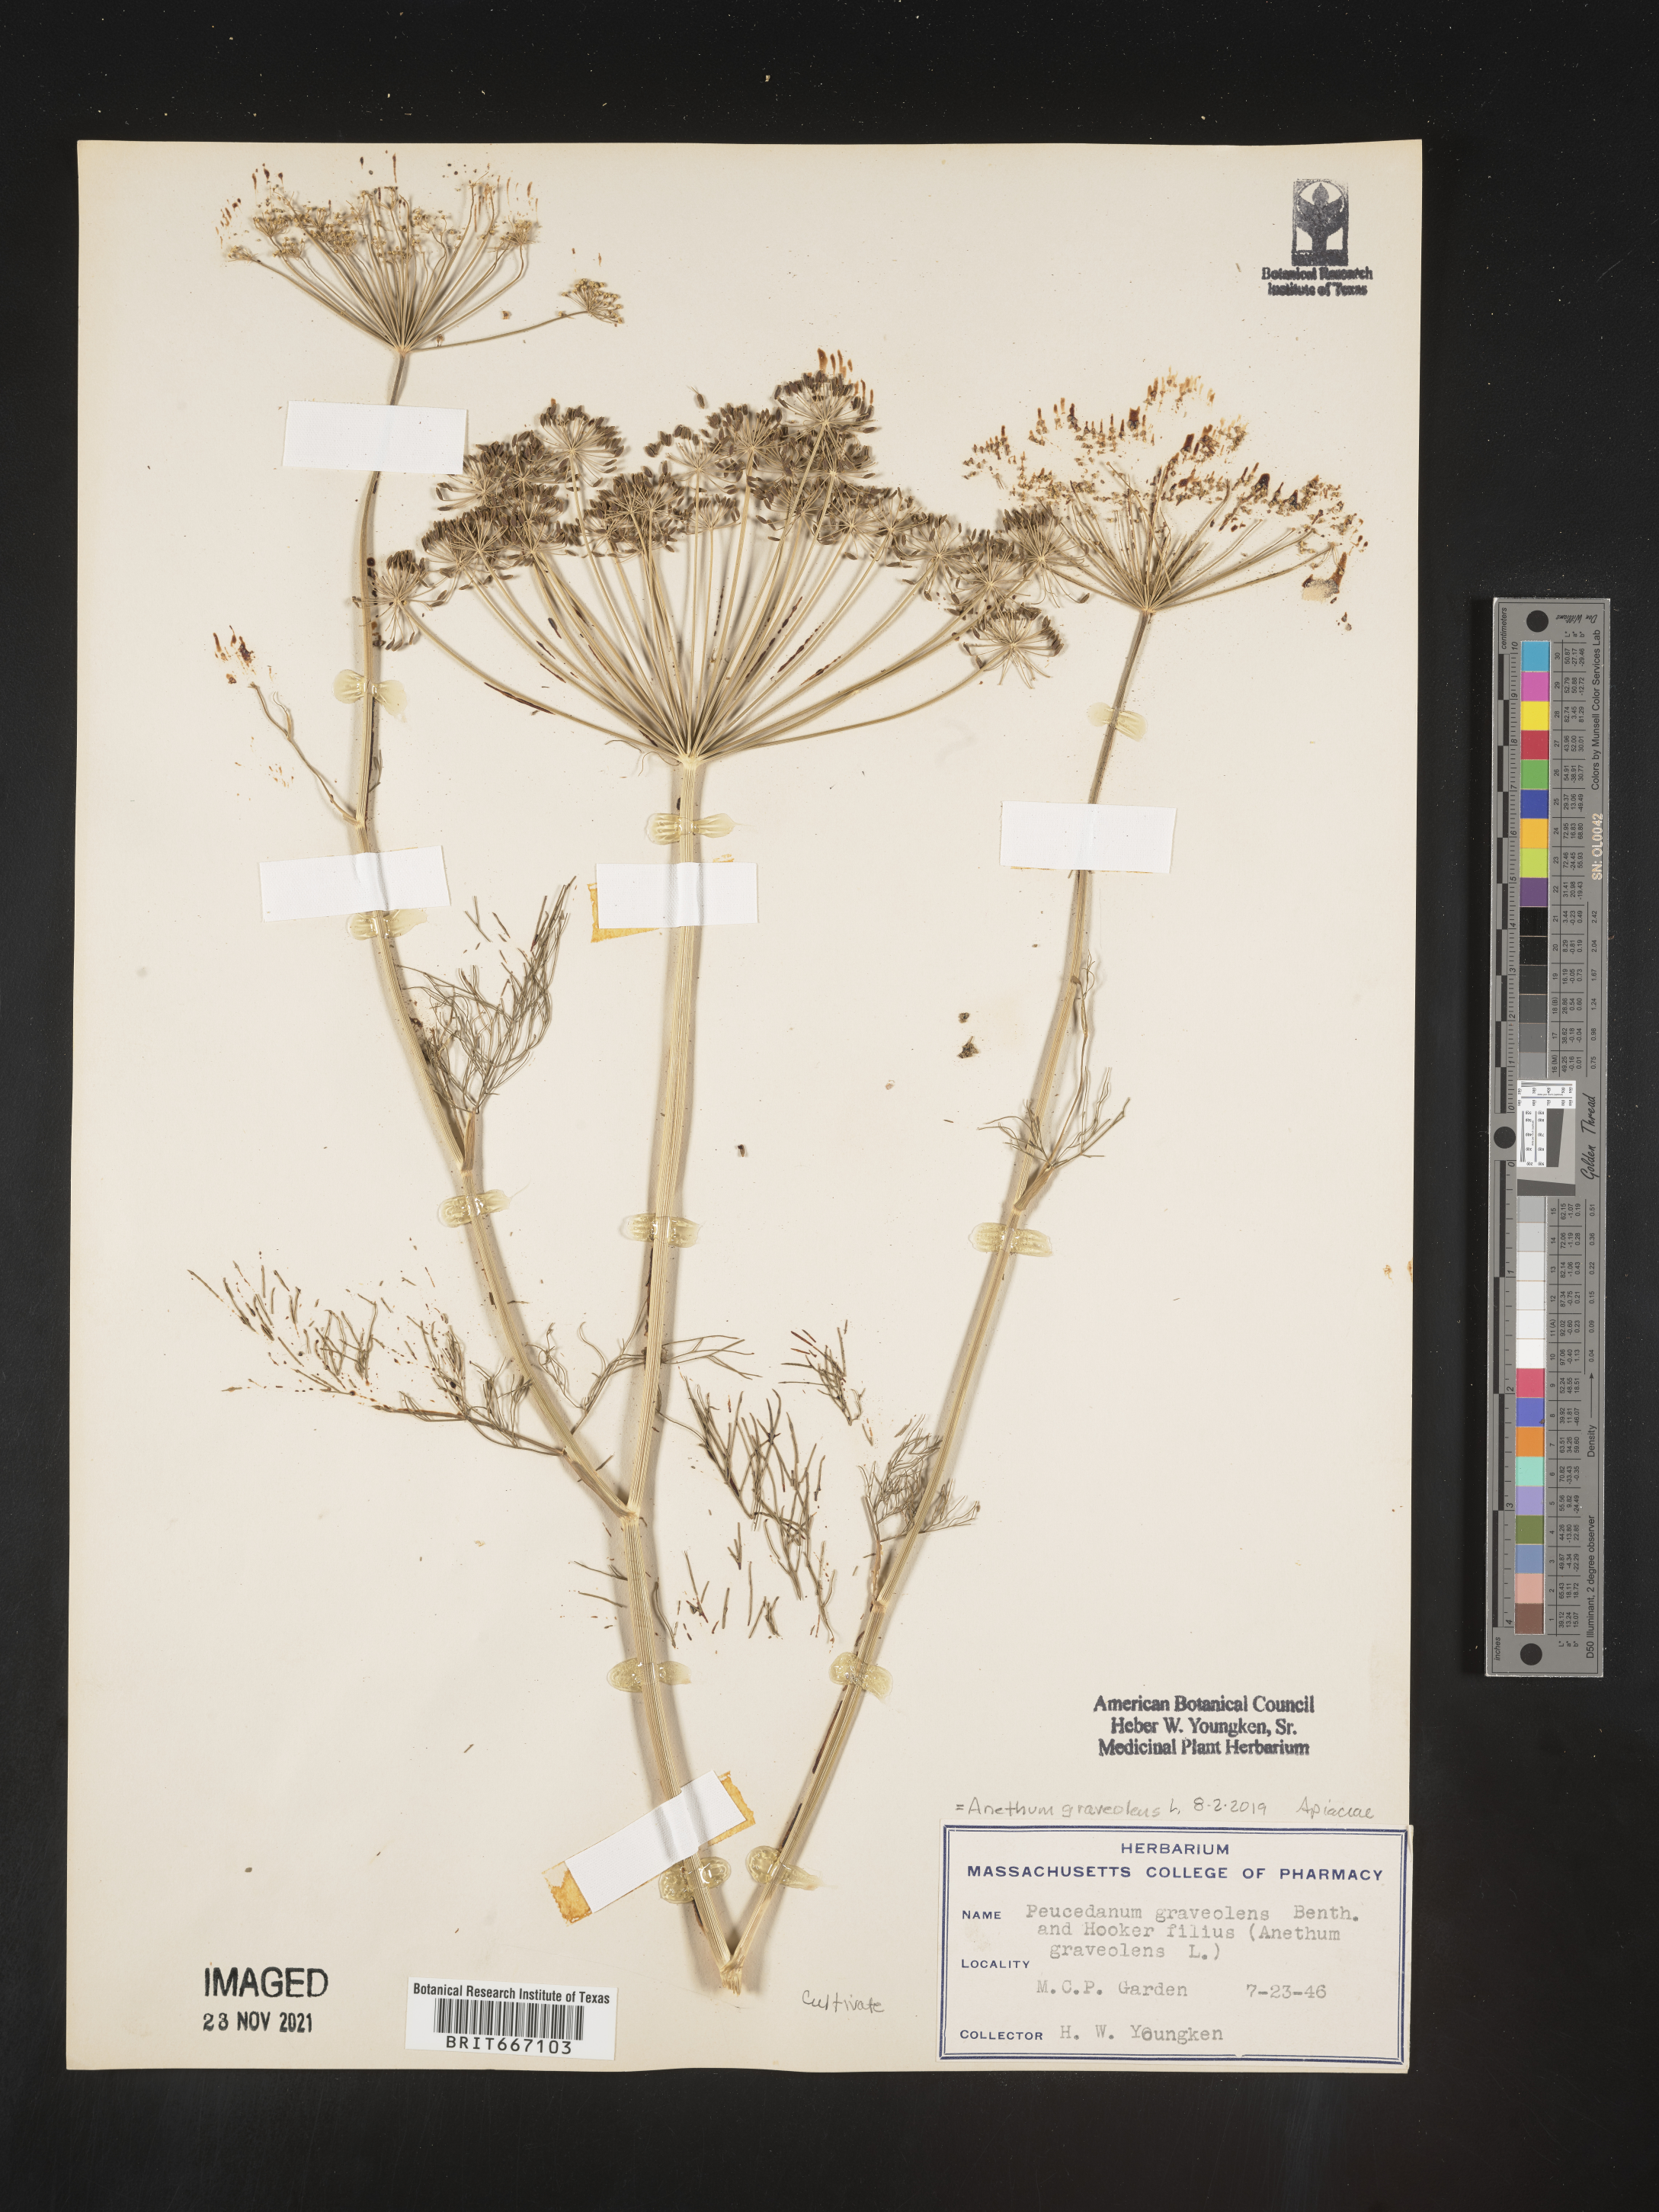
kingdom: Plantae
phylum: Tracheophyta
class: Magnoliopsida
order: Apiales
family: Apiaceae
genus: Anethum
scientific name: Anethum
